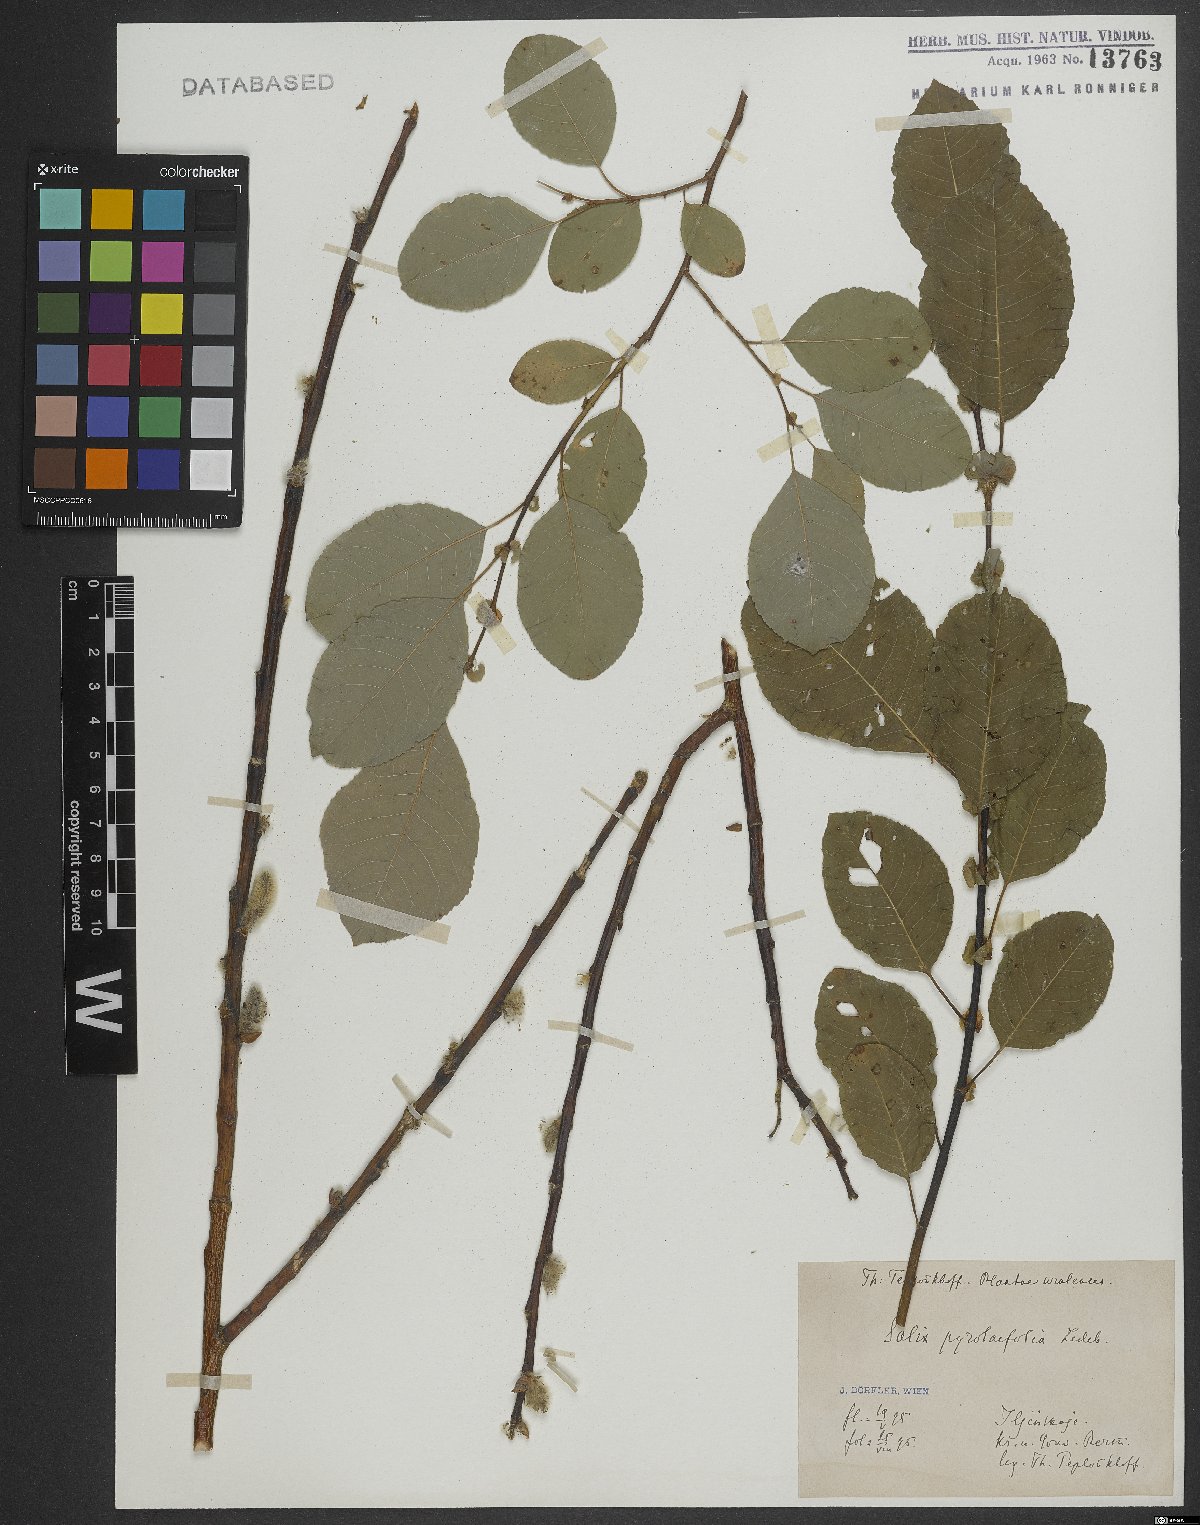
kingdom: Plantae
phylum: Tracheophyta
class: Magnoliopsida
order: Malpighiales
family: Salicaceae
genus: Salix
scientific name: Salix pyrolifolia
